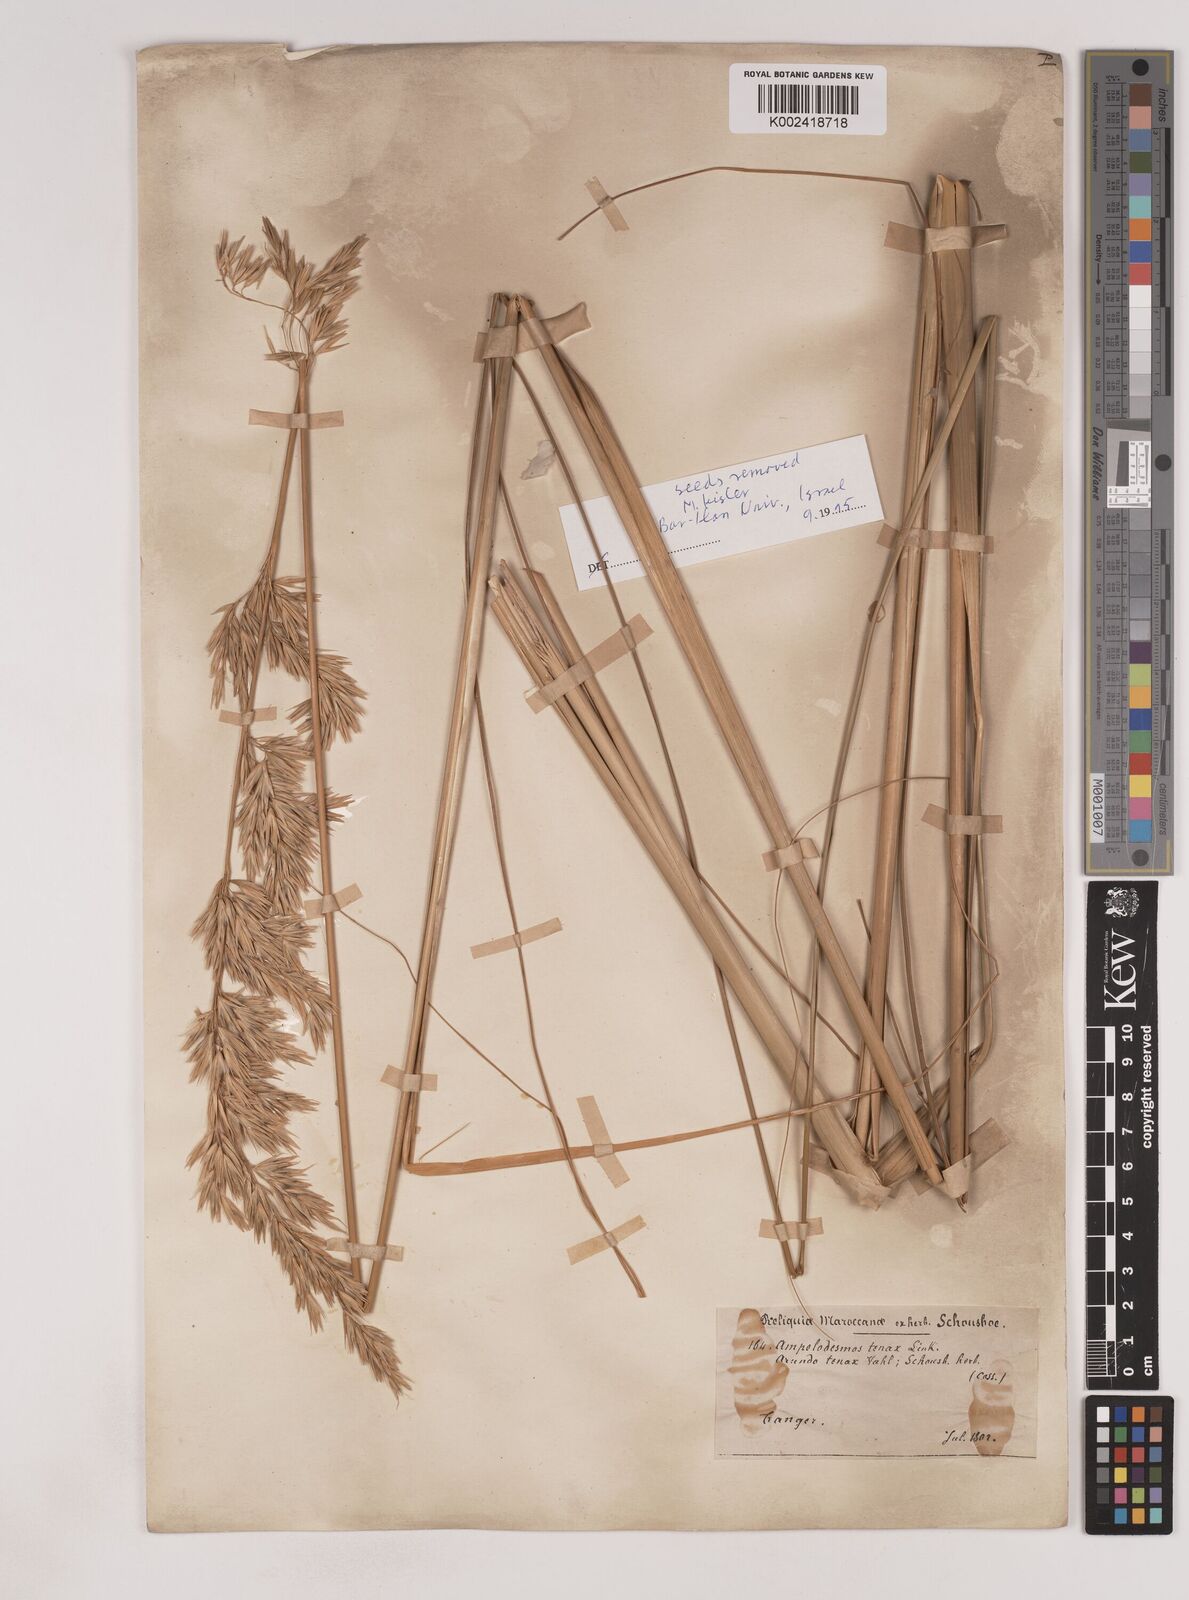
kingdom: Plantae
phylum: Tracheophyta
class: Liliopsida
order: Poales
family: Poaceae
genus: Ampelodesmos
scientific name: Ampelodesmos mauritanicus
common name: Mauritanian grass
